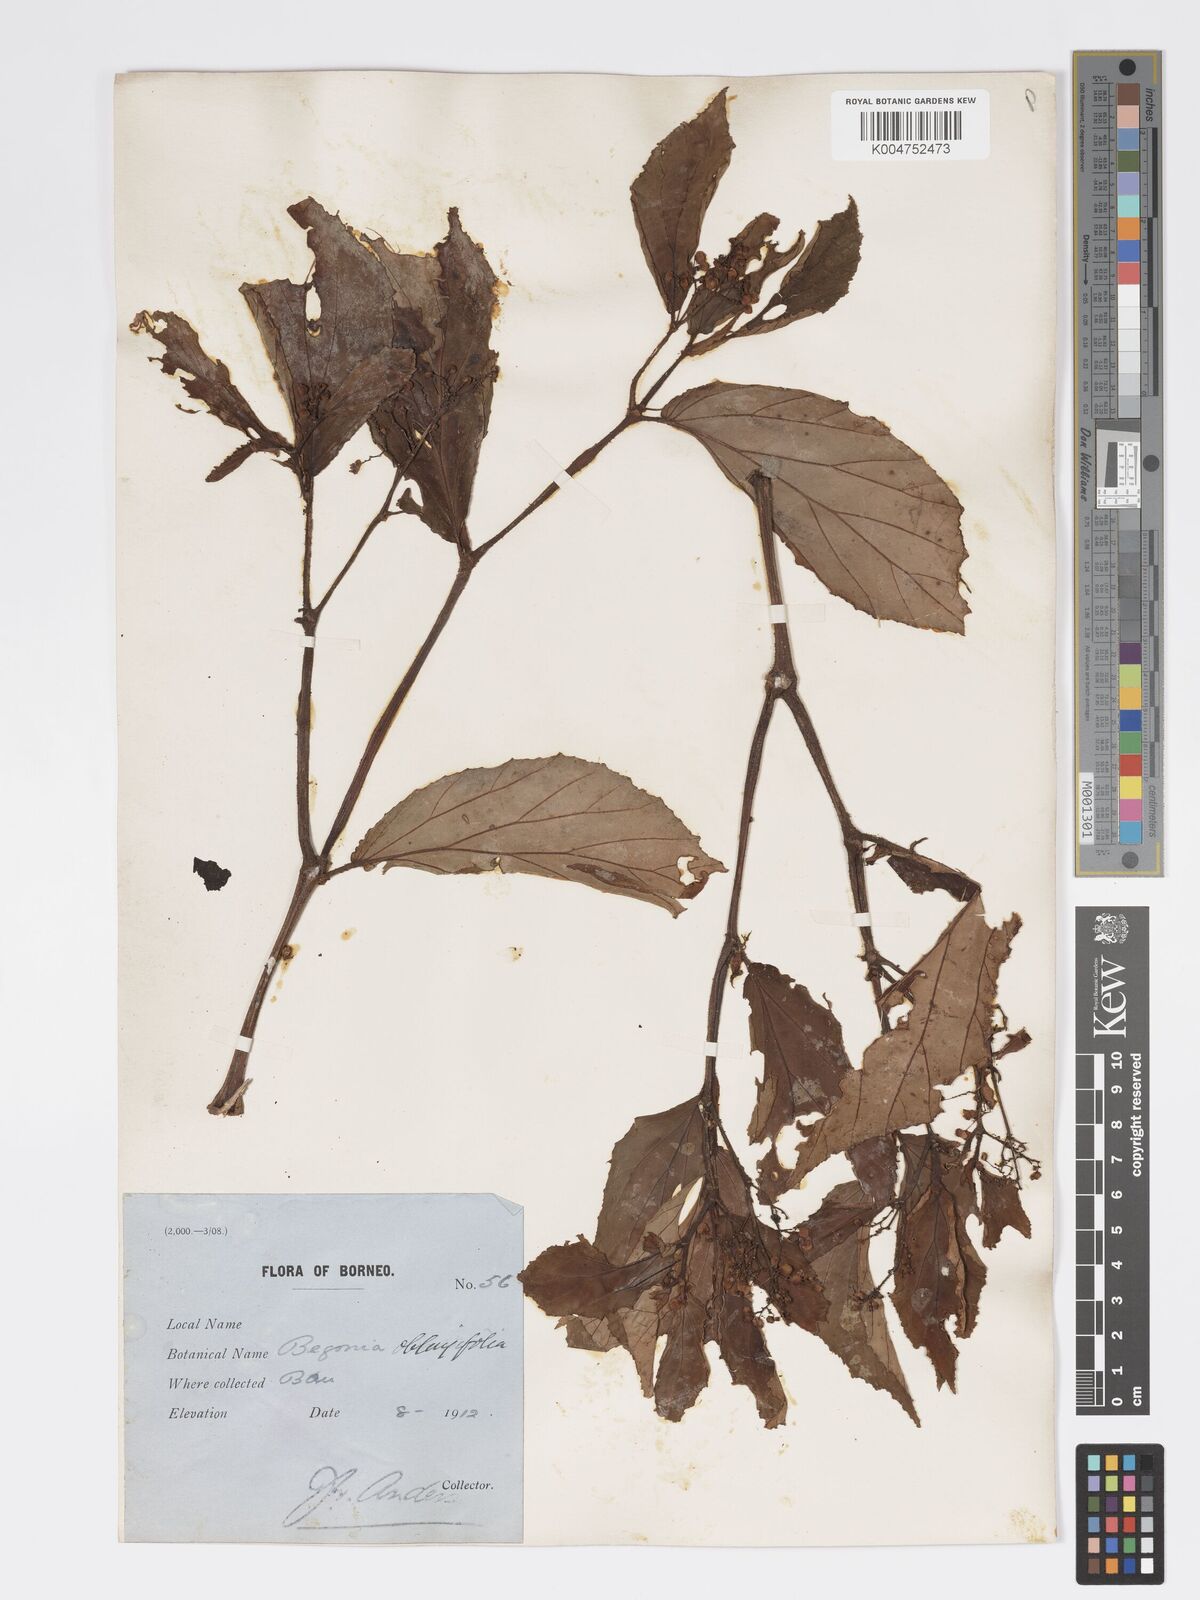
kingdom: Plantae
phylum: Tracheophyta
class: Magnoliopsida
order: Cucurbitales
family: Begoniaceae
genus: Begonia
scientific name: Begonia oblongifolia
